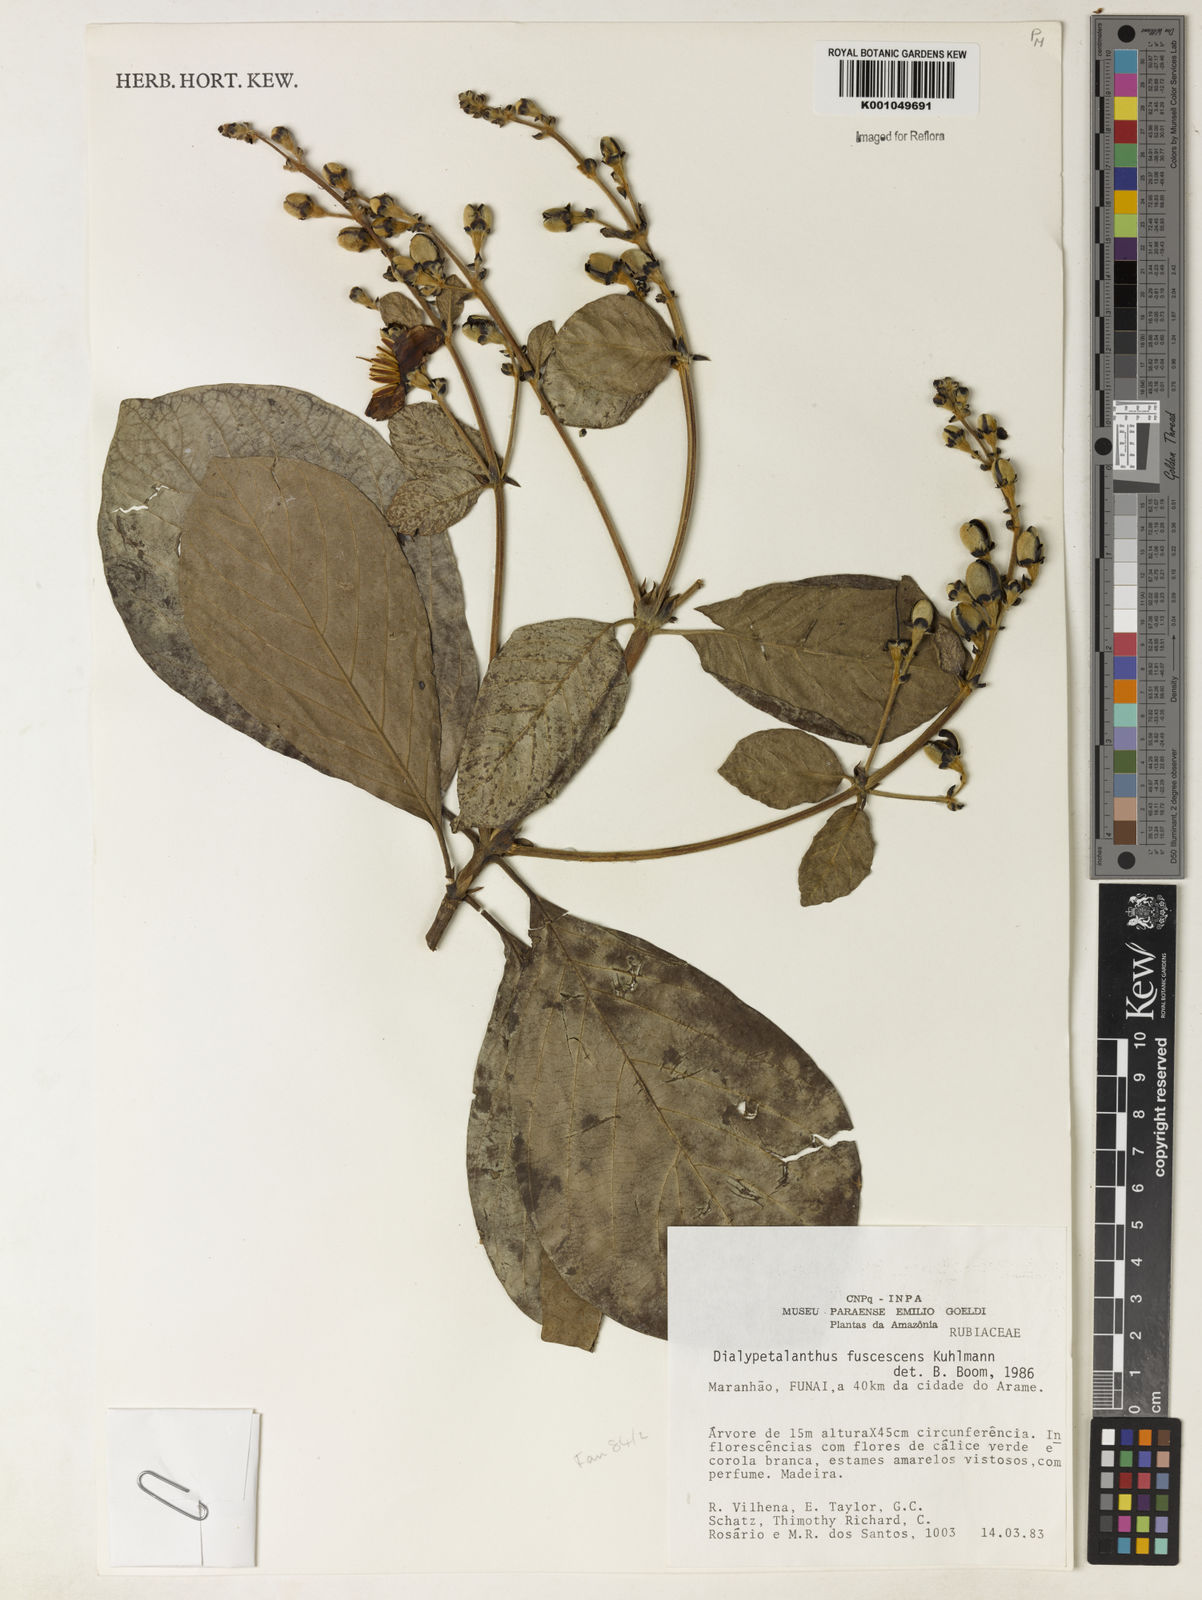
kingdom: Plantae
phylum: Tracheophyta
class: Magnoliopsida
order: Gentianales
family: Rubiaceae
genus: Dialypetalanthus
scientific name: Dialypetalanthus fuscescens
